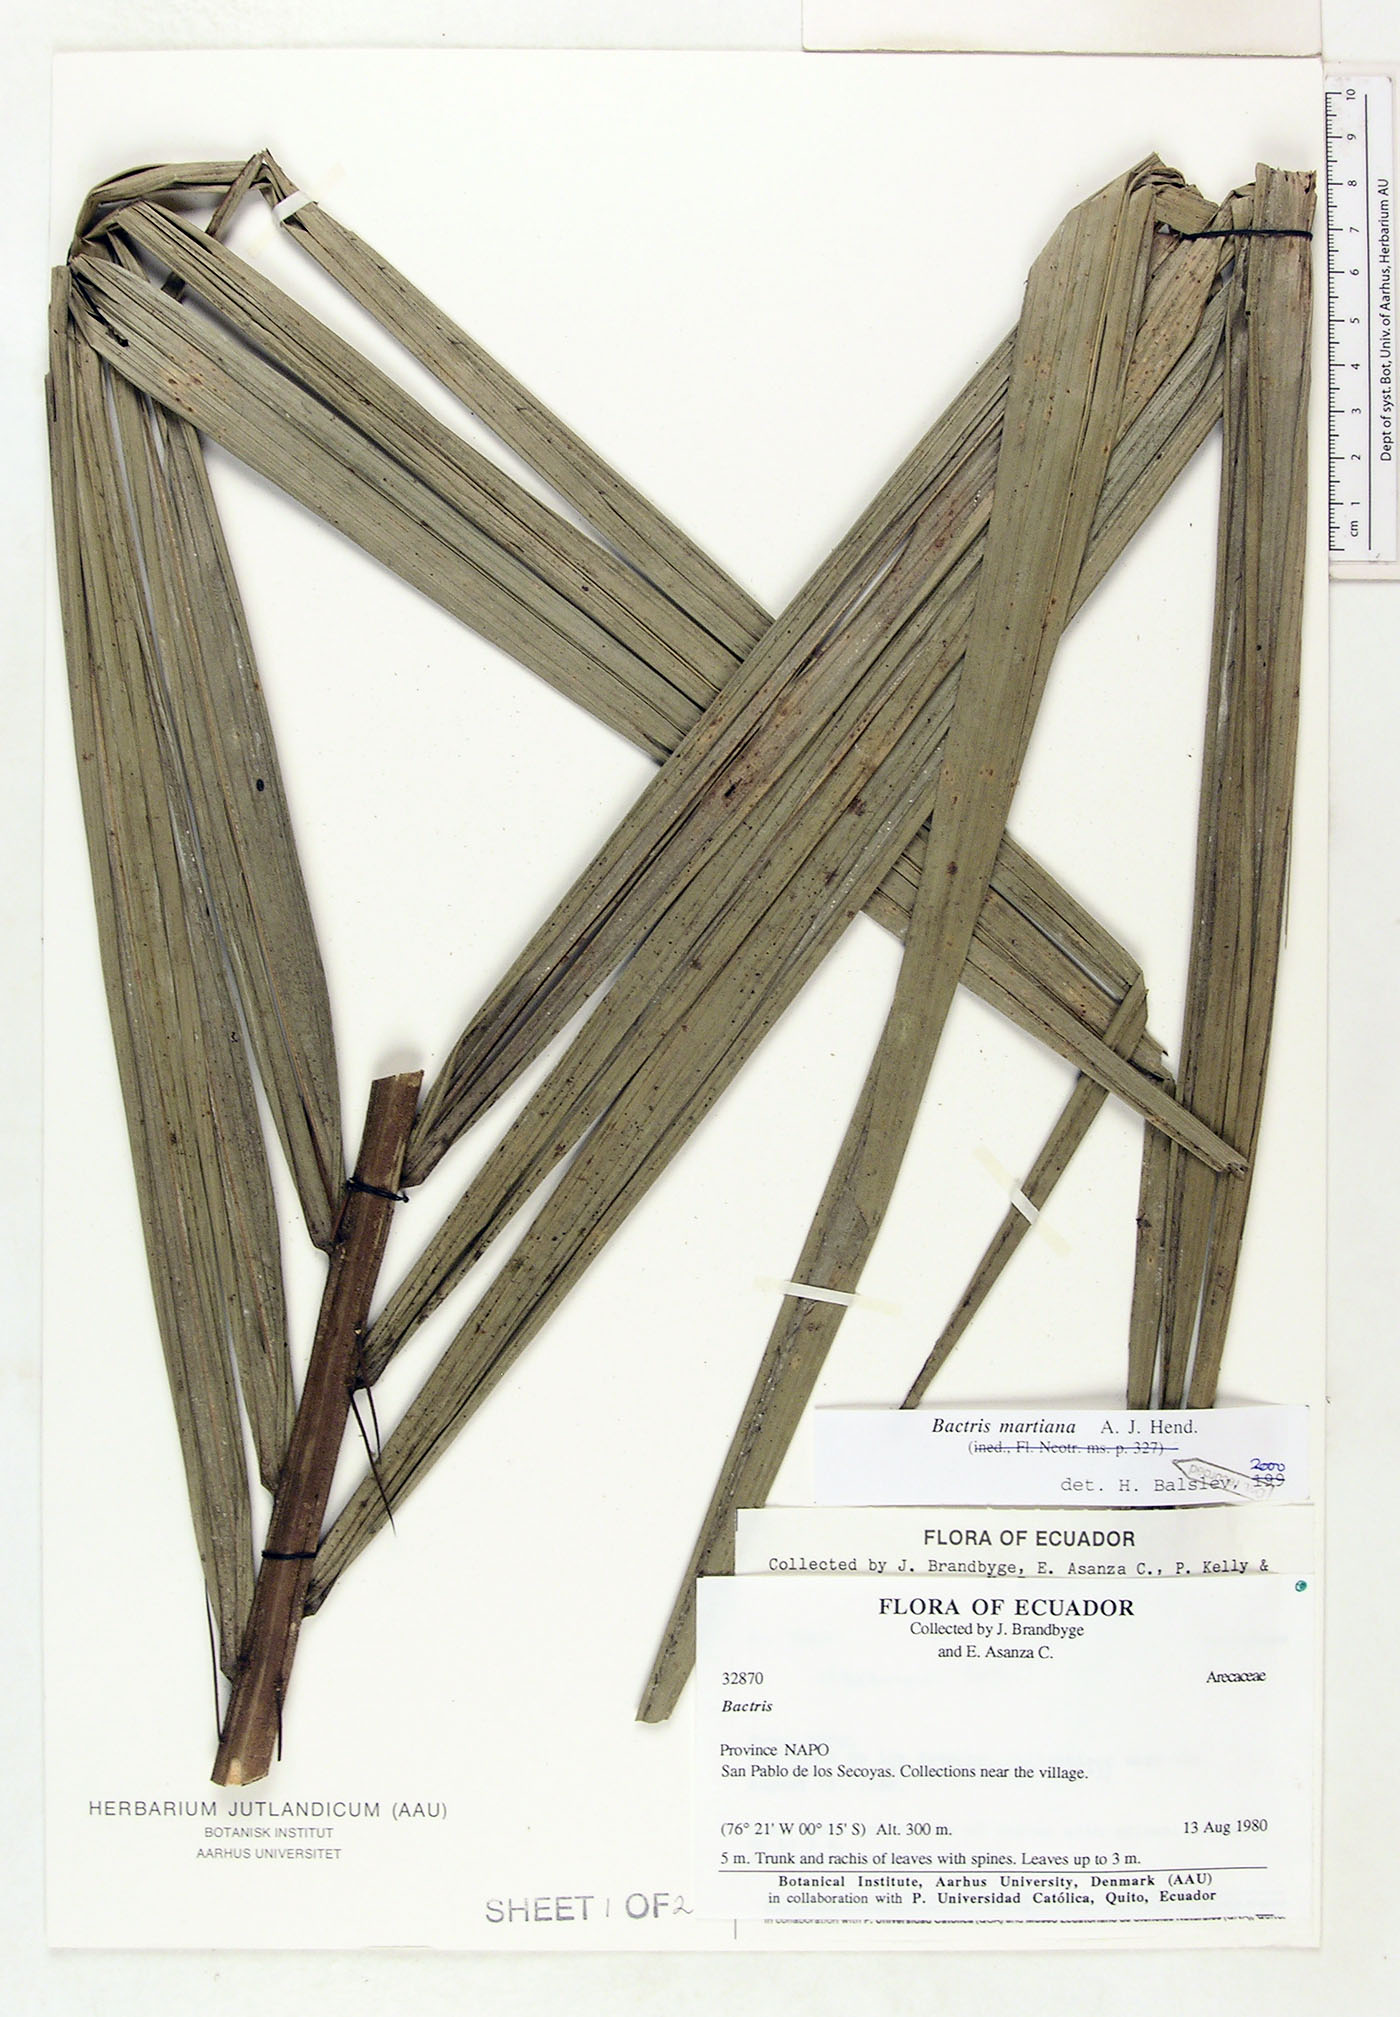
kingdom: Plantae
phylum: Tracheophyta
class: Liliopsida
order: Arecales
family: Arecaceae
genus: Bactris
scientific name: Bactris martiana
